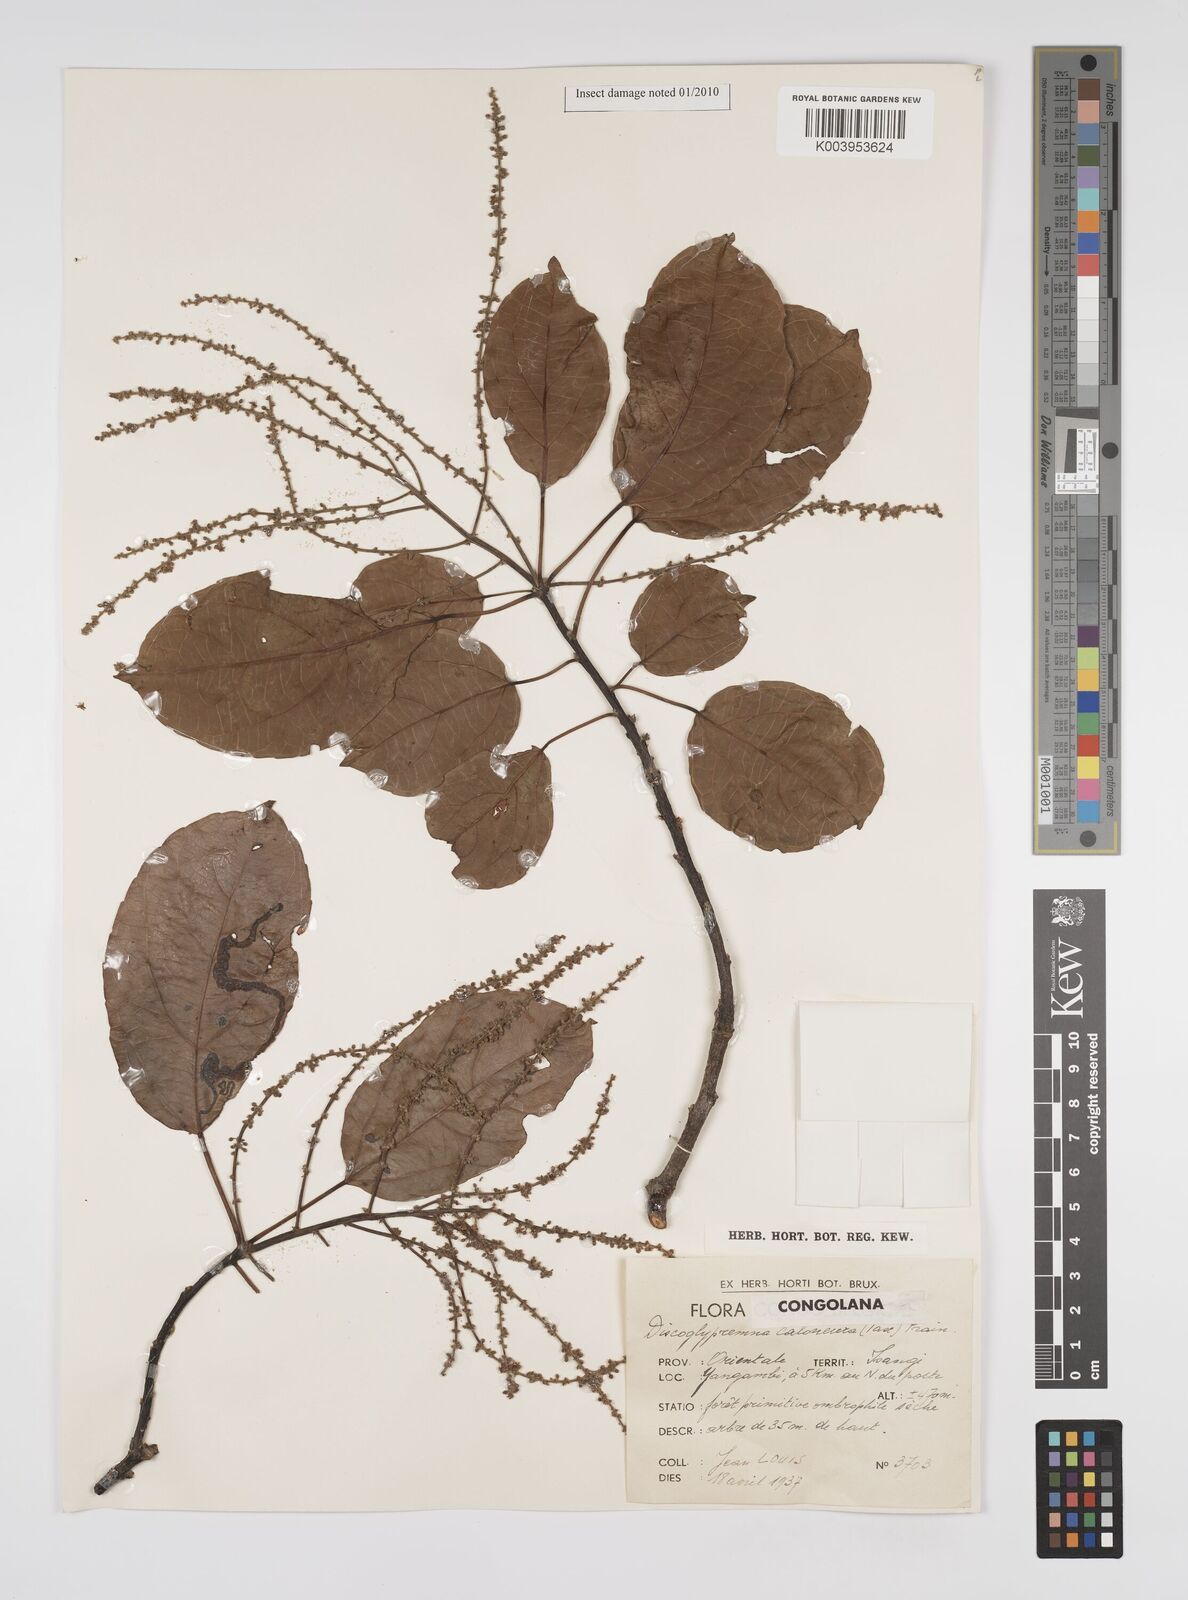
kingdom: Plantae
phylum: Tracheophyta
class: Magnoliopsida
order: Malpighiales
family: Euphorbiaceae
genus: Discoglypremna
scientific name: Discoglypremna caloneura
